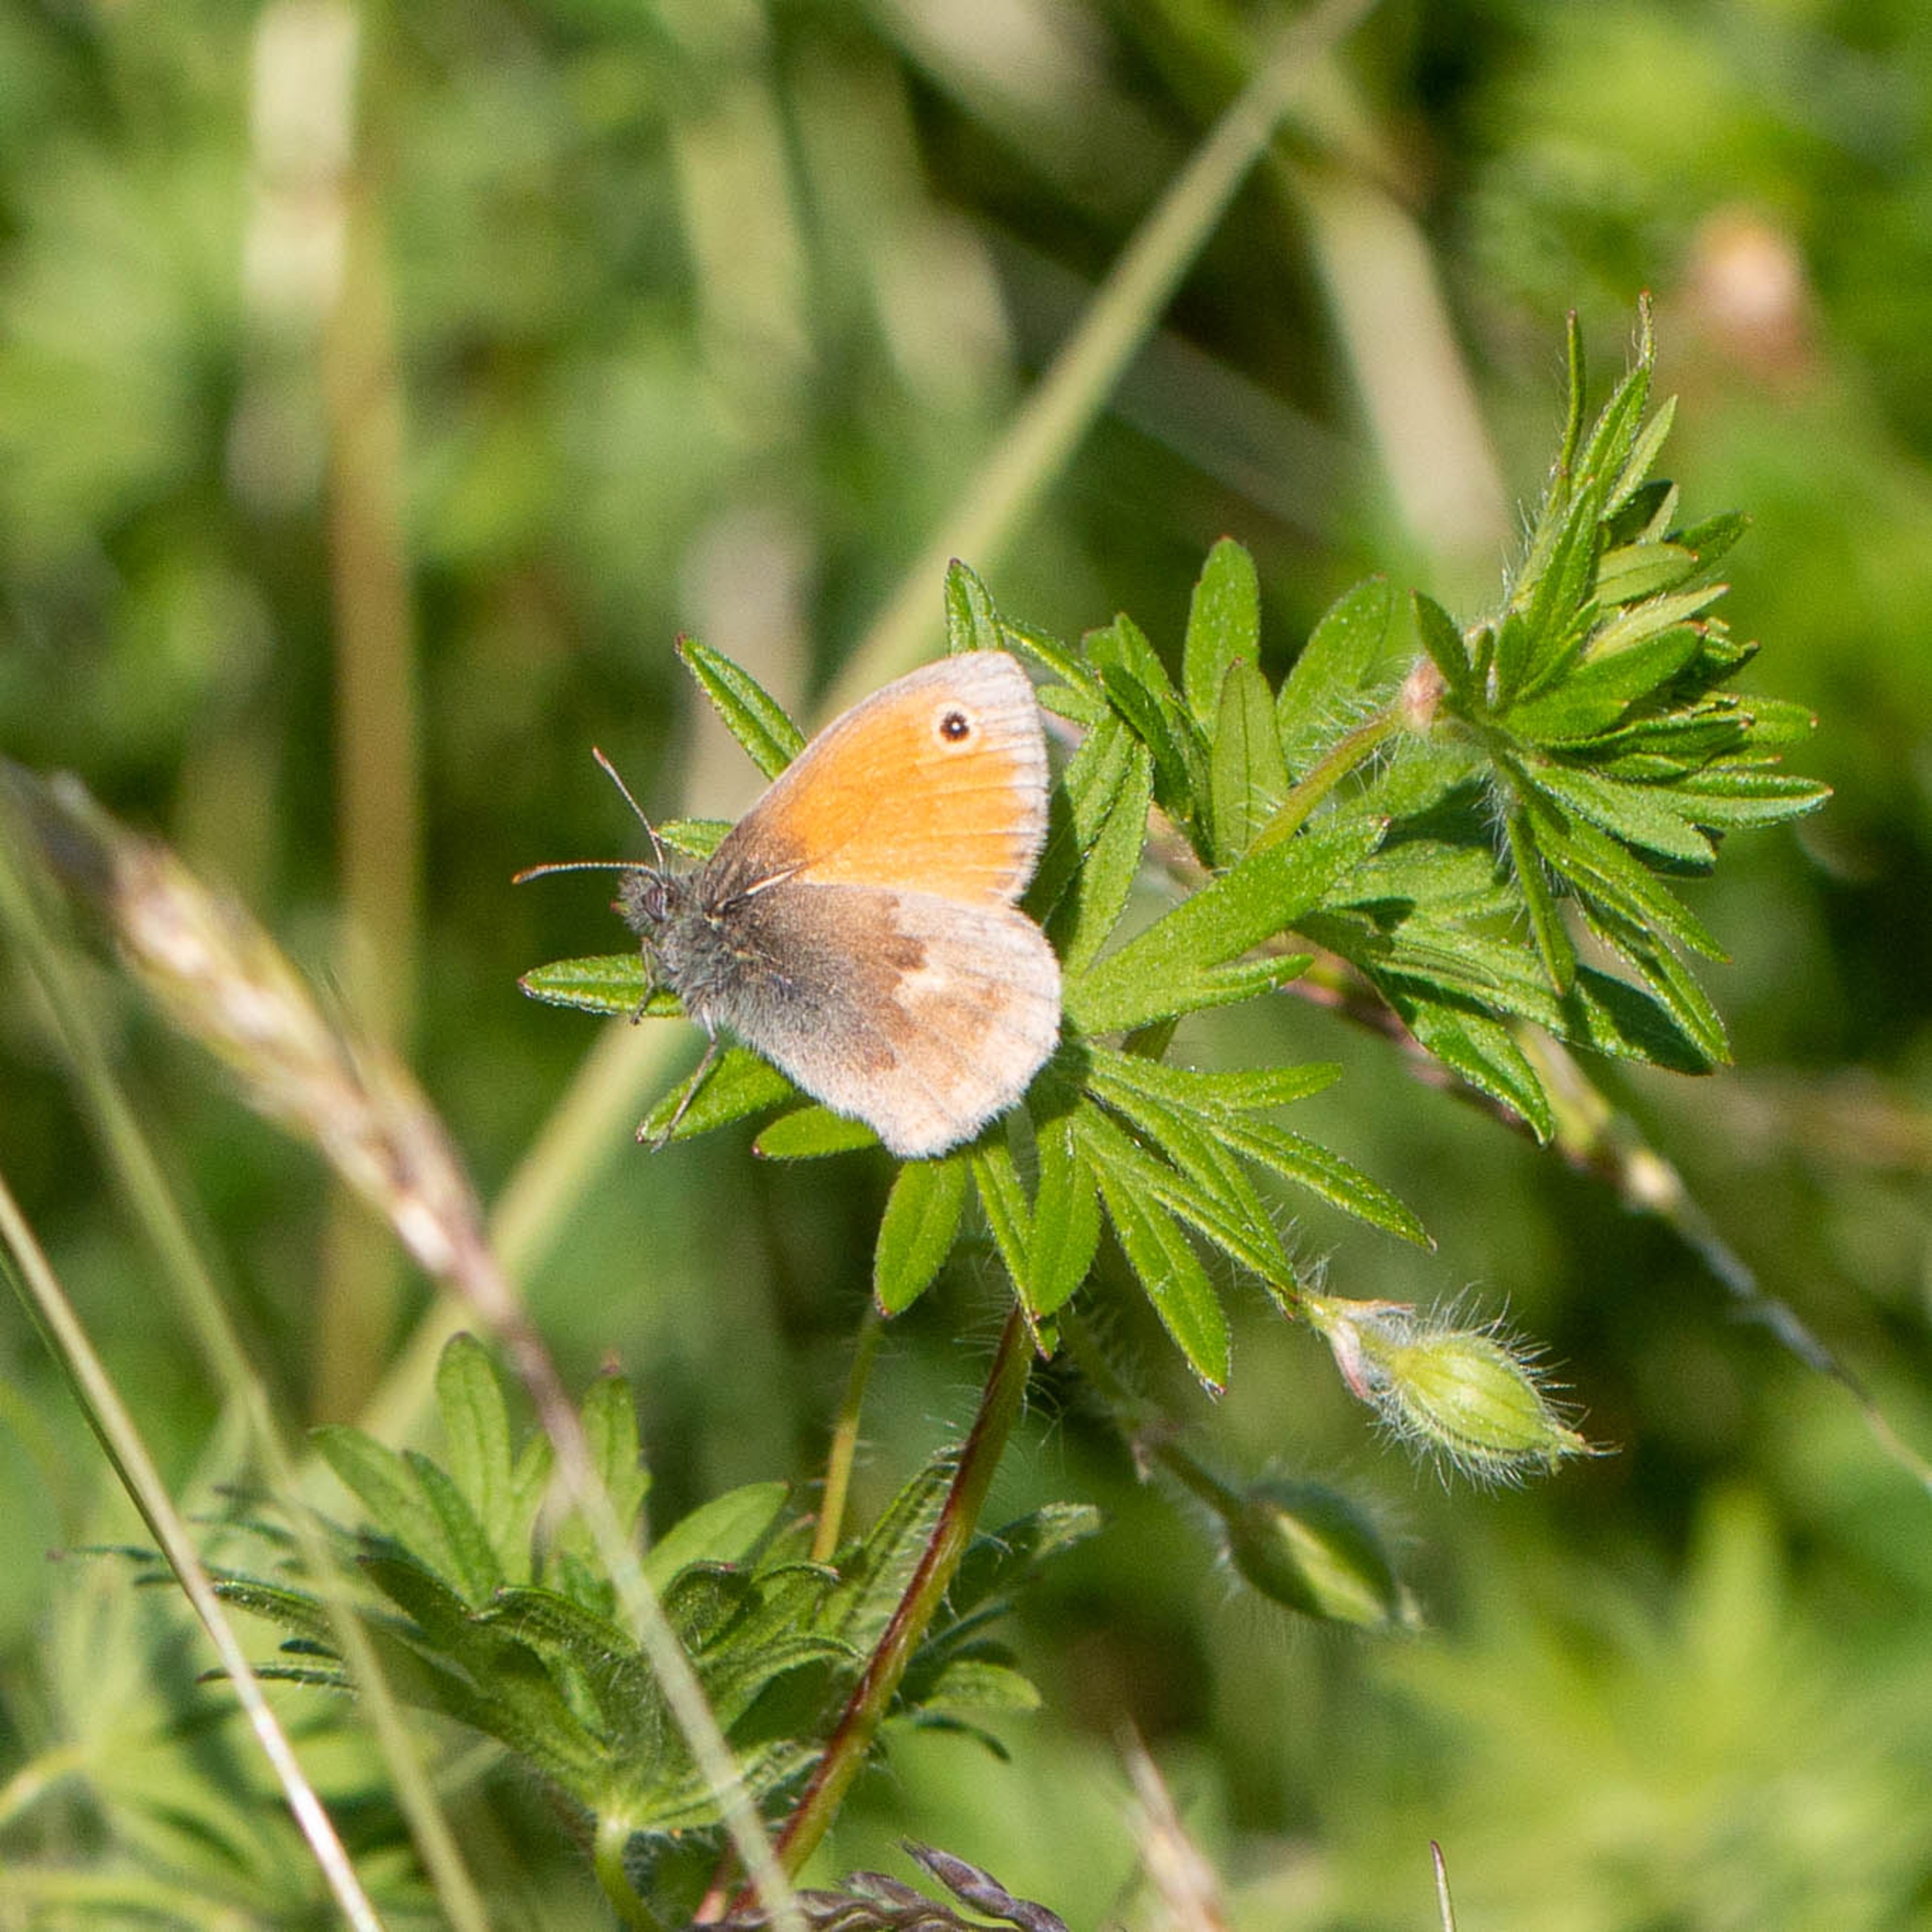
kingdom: Animalia
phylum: Arthropoda
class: Insecta
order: Lepidoptera
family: Nymphalidae
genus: Coenonympha
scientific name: Coenonympha pamphilus
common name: Okkergul randøje
